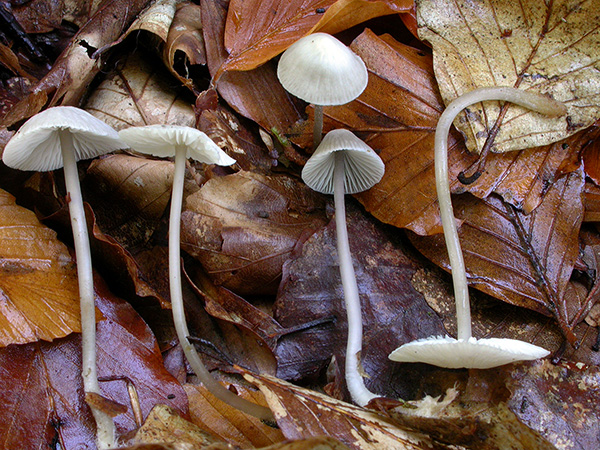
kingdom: Fungi
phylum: Basidiomycota
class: Agaricomycetes
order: Agaricales
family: Mycenaceae
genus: Mycena
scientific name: Mycena fagetorum
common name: bøgeløv-huesvamp
